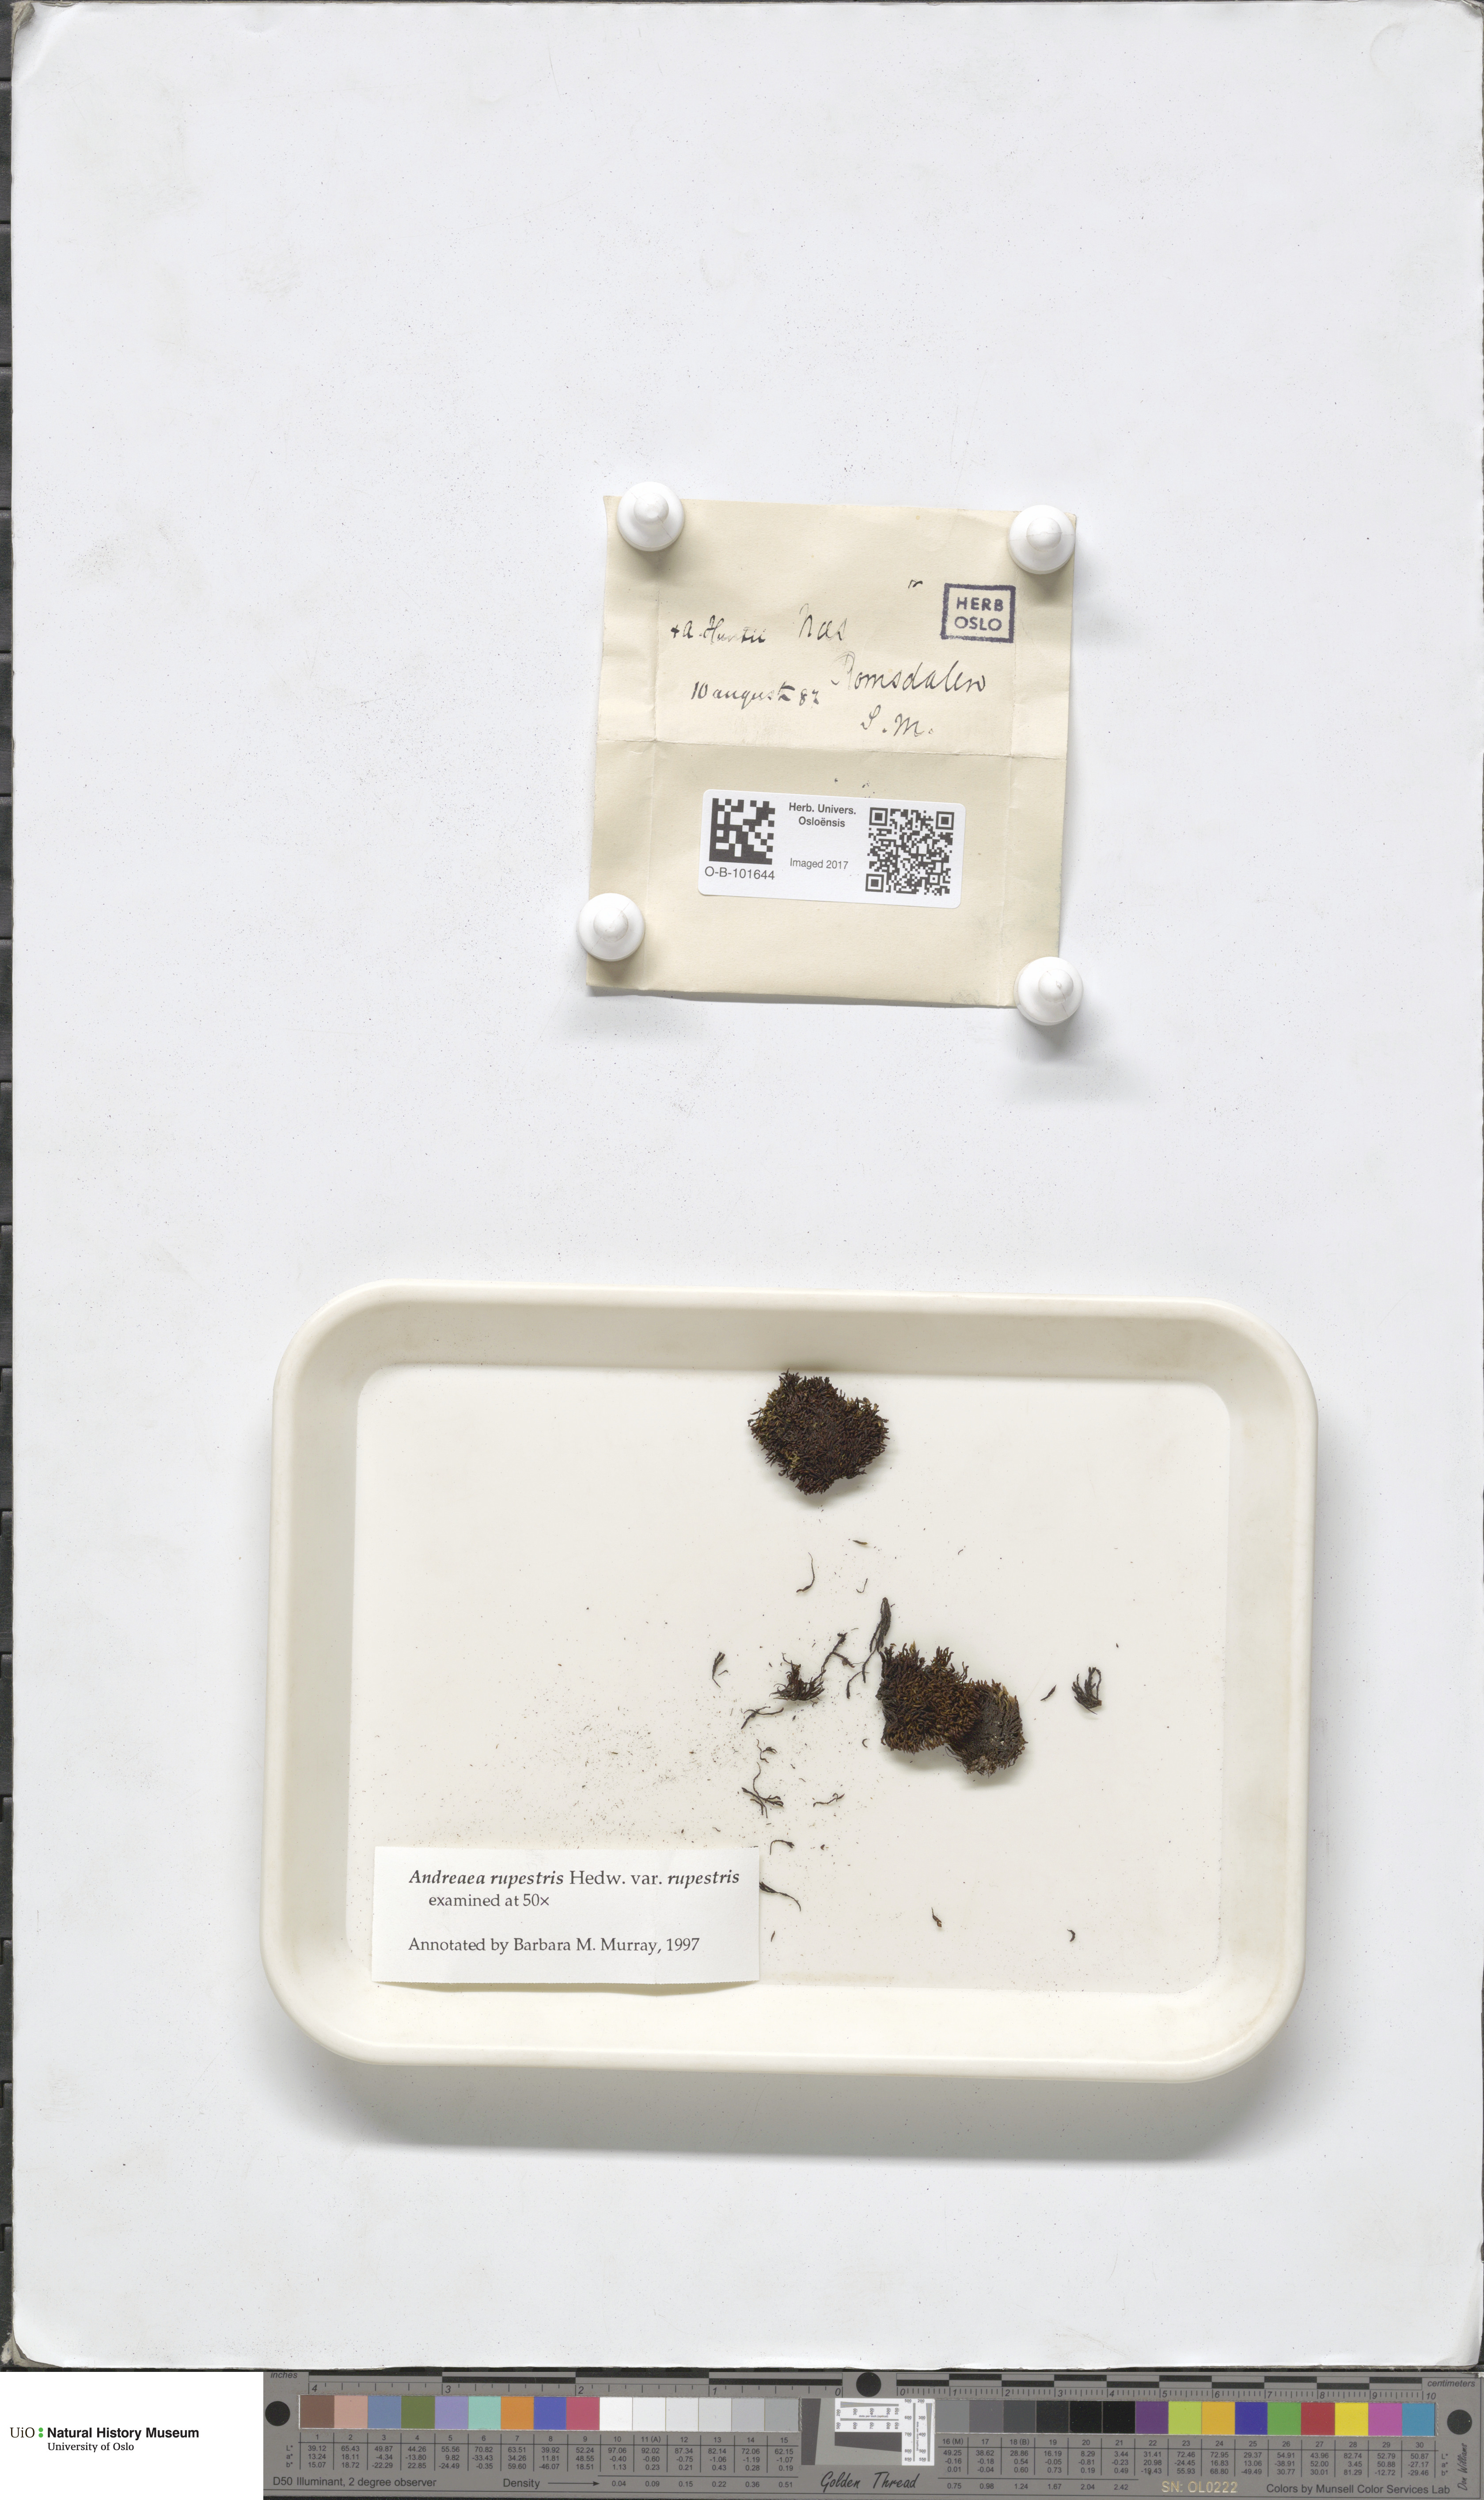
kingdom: Plantae
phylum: Bryophyta
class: Andreaeopsida
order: Andreaeales
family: Andreaeaceae
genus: Andreaea
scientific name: Andreaea rupestris
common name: Black rock moss
